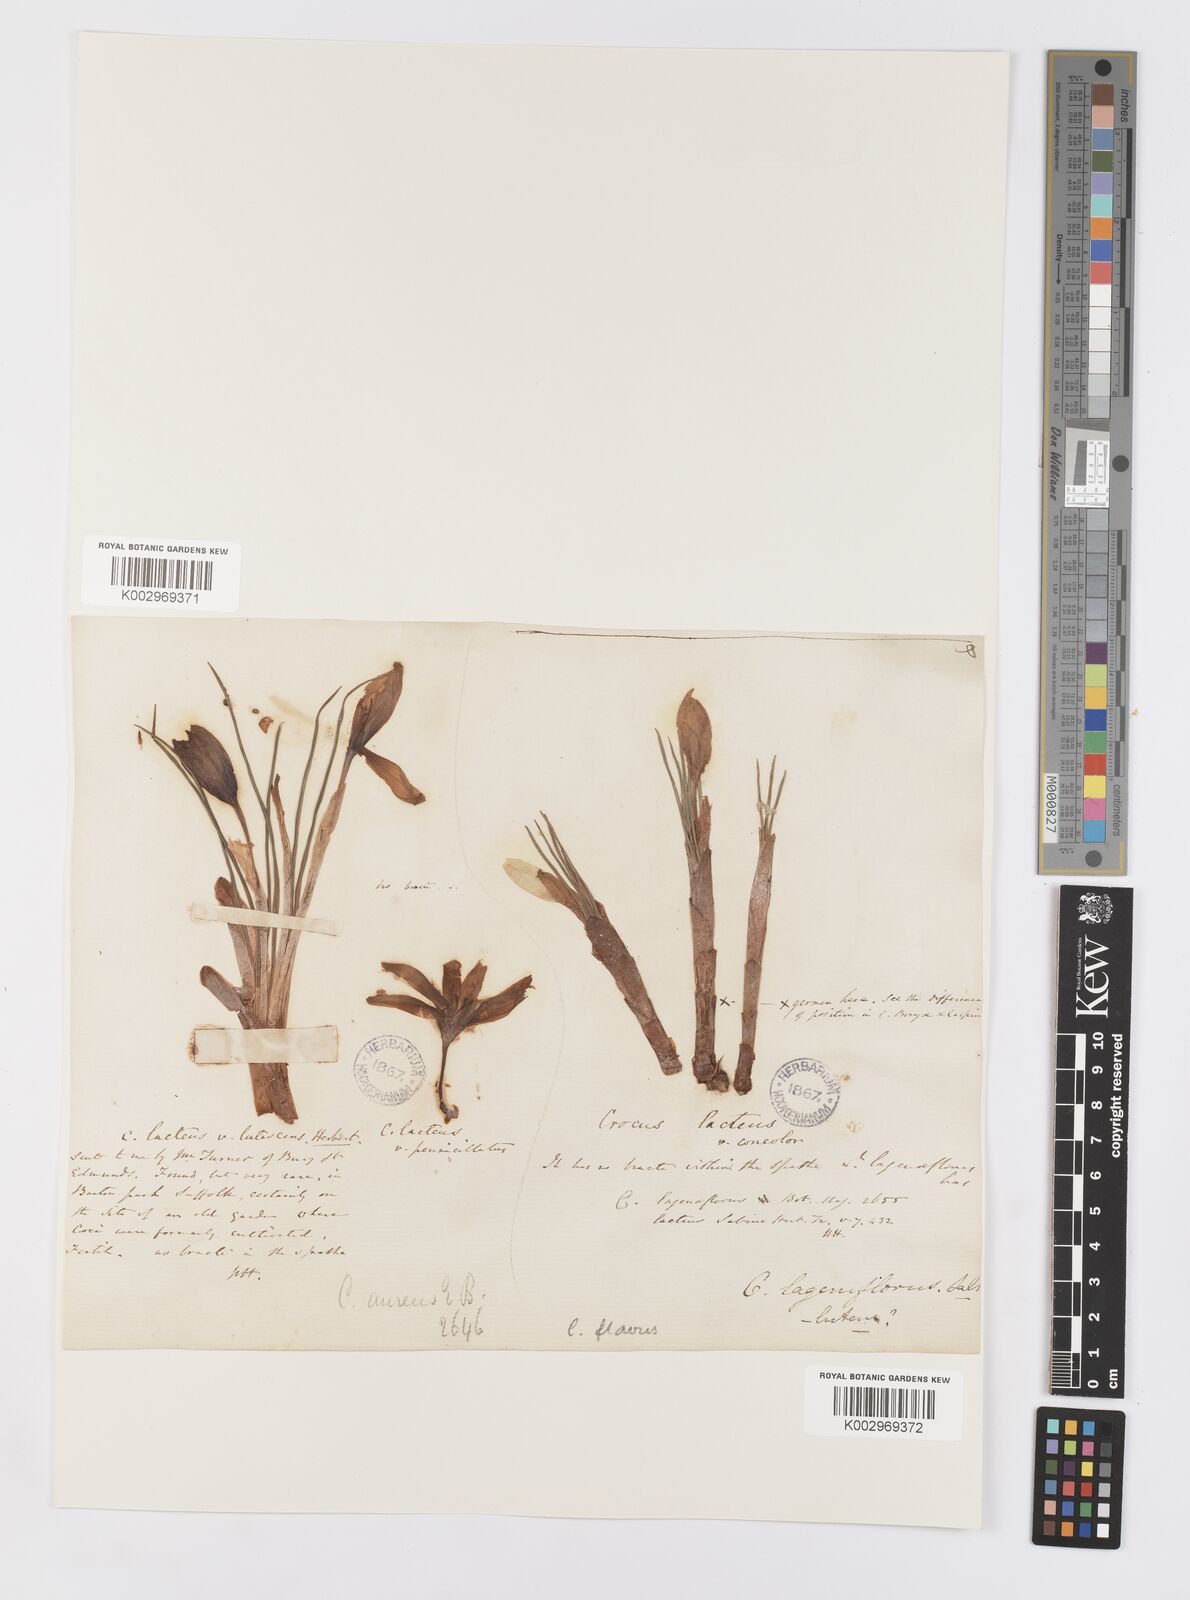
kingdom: Plantae
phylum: Tracheophyta
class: Liliopsida
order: Asparagales
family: Iridaceae
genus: Crocus
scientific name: Crocus flavus
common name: Yellow crocus
